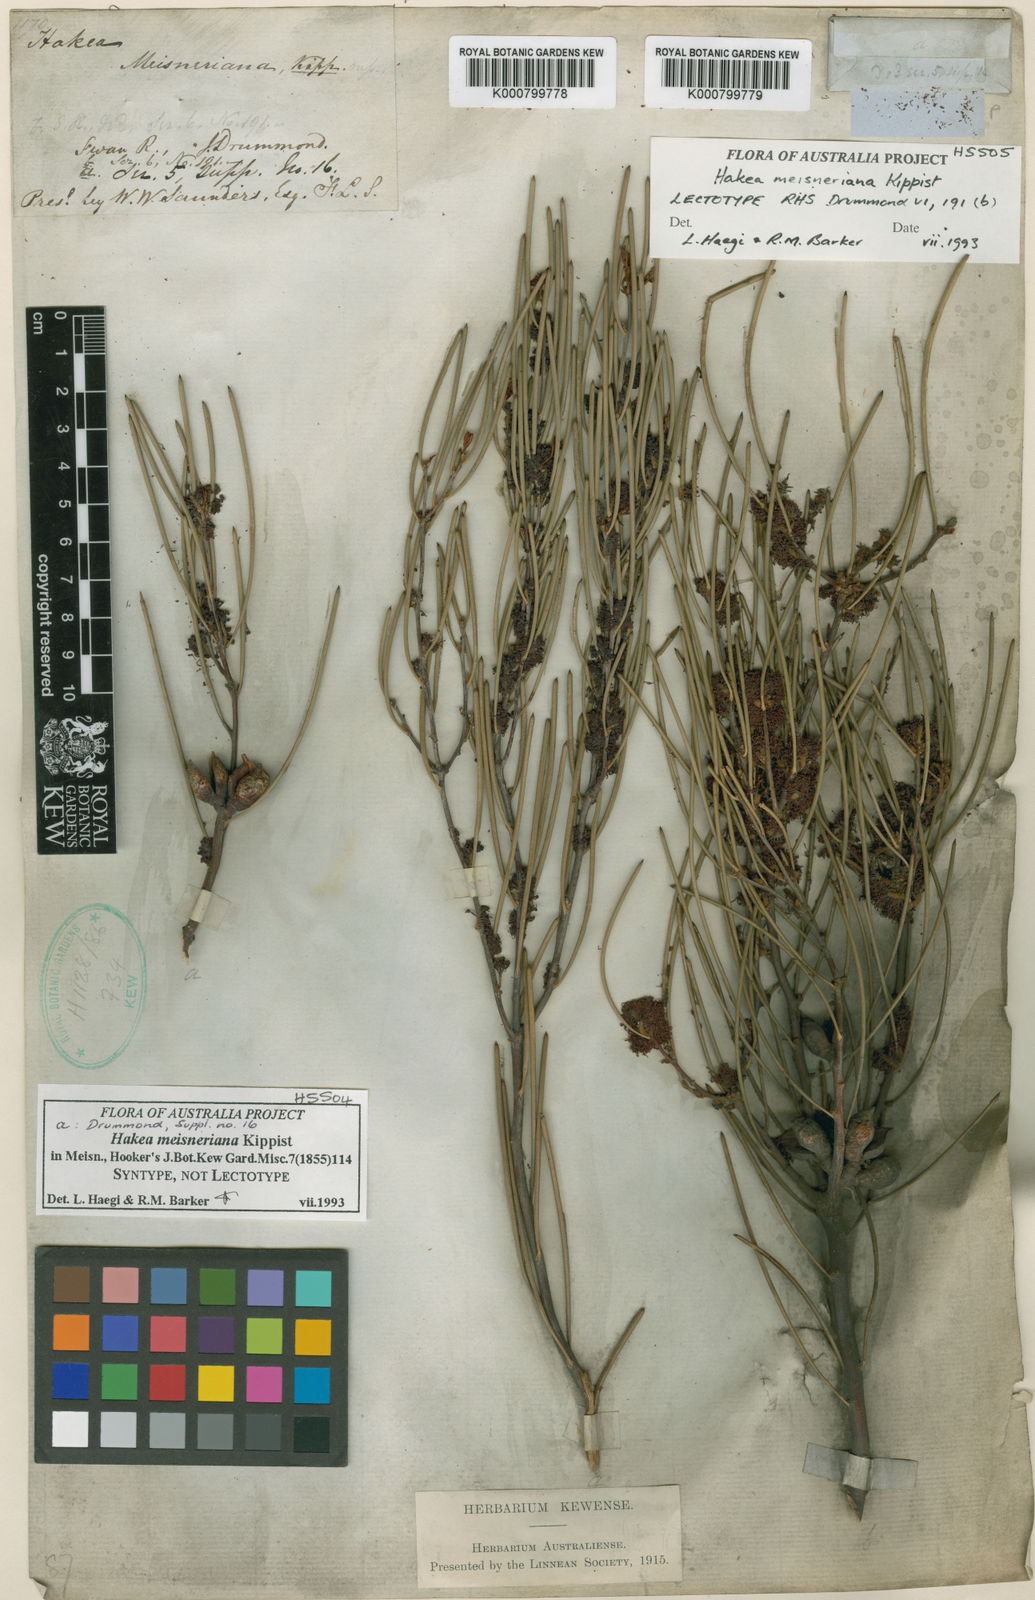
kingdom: Plantae
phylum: Tracheophyta
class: Magnoliopsida
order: Proteales
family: Proteaceae
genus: Hakea
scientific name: Hakea
